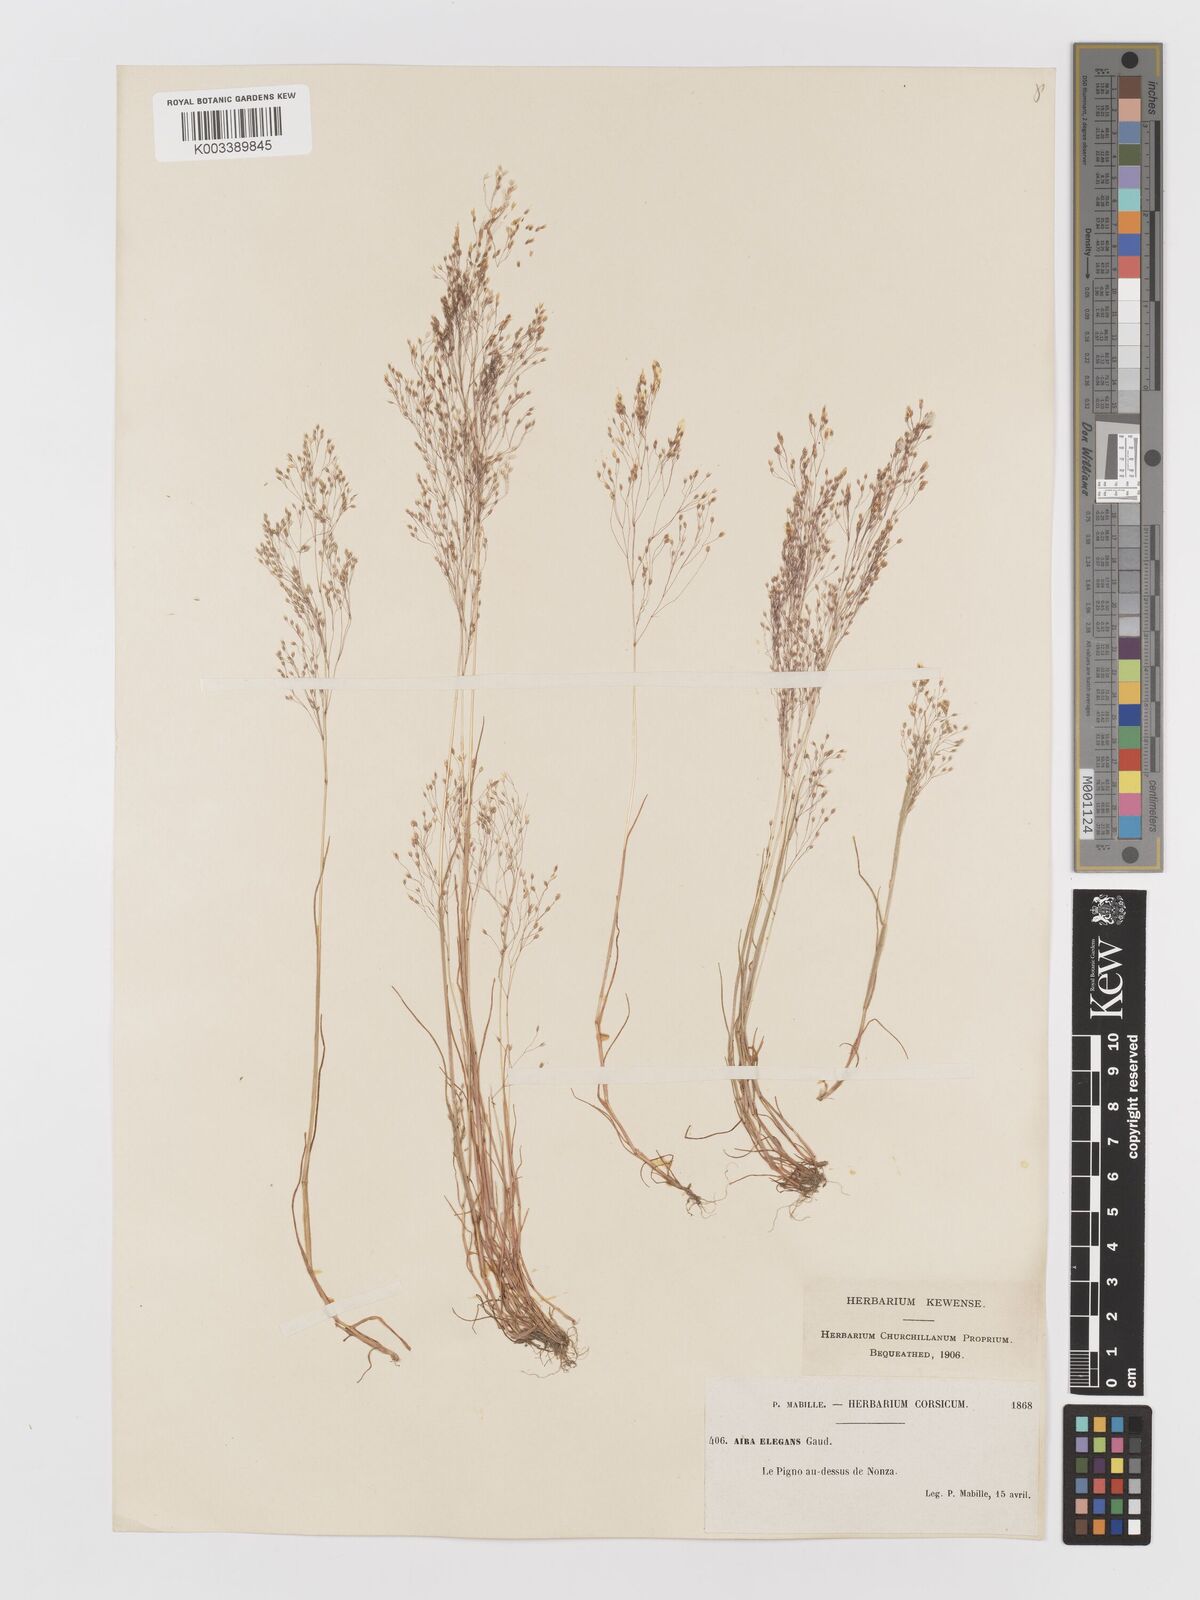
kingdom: Plantae
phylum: Tracheophyta
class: Liliopsida
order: Poales
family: Poaceae
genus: Aira
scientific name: Aira elegans
